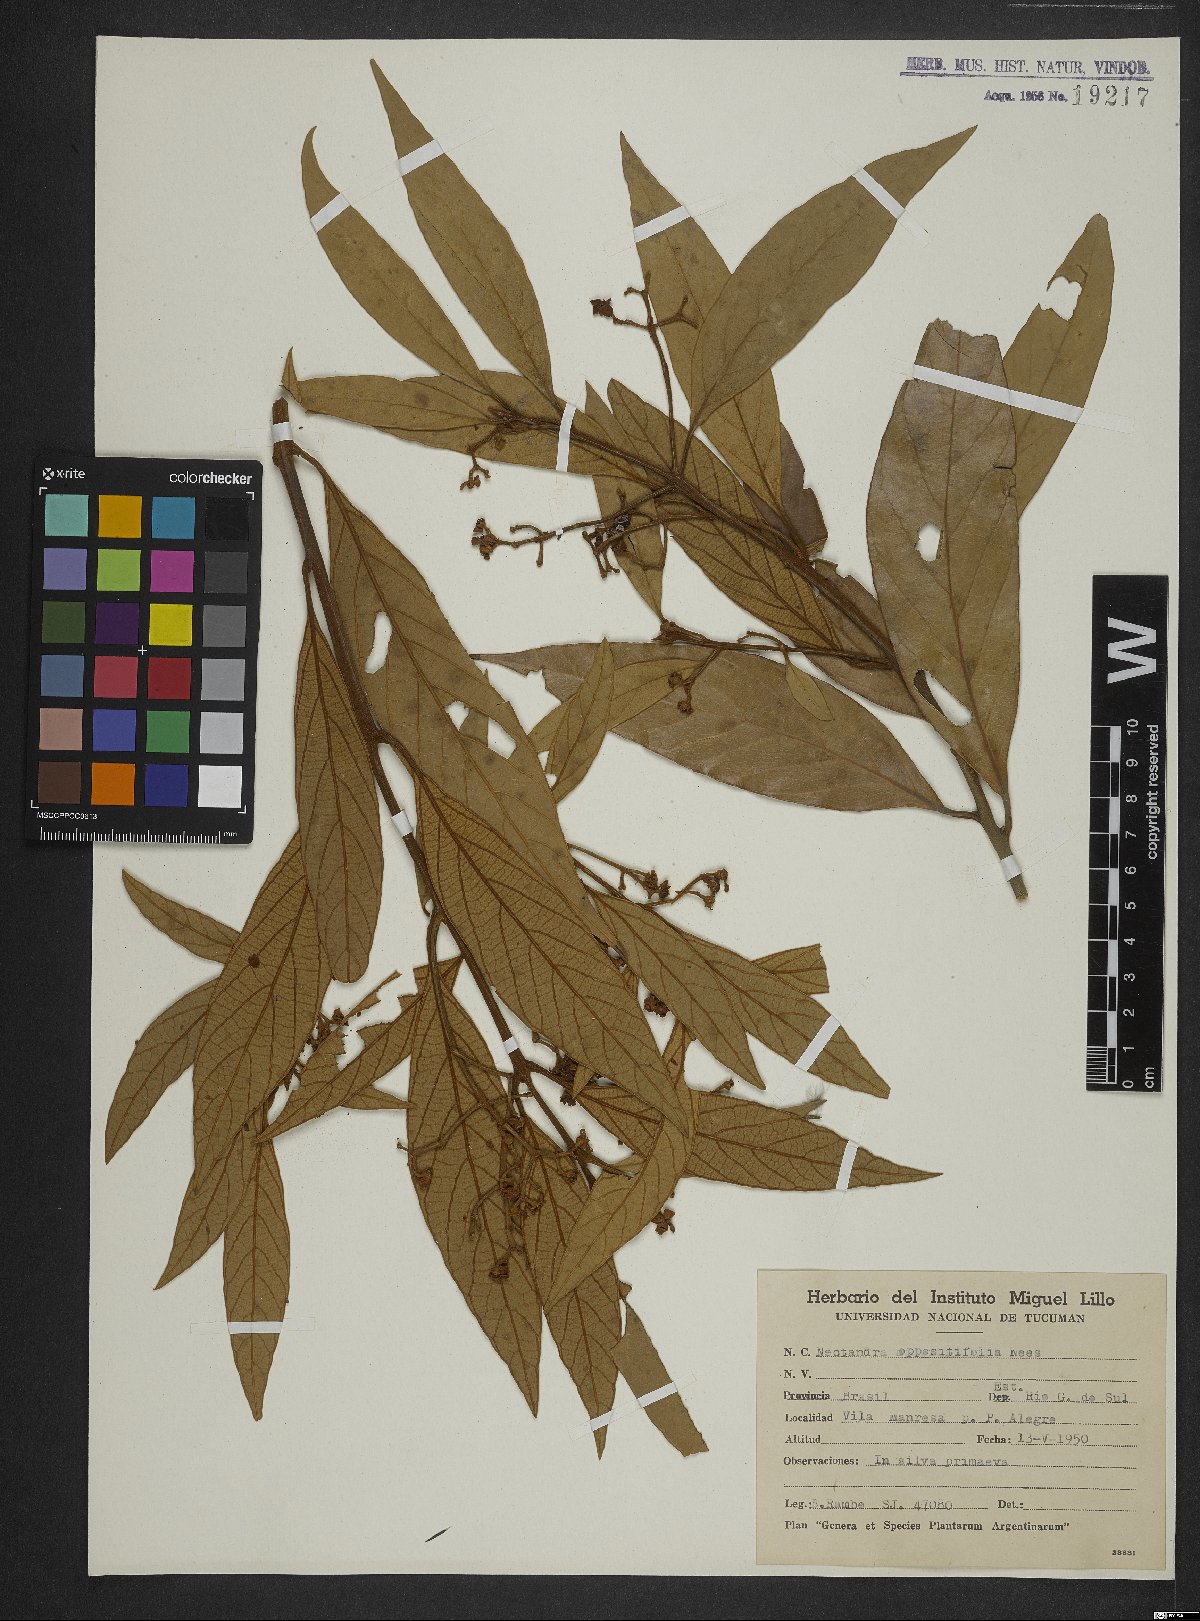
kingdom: Plantae
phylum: Tracheophyta
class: Magnoliopsida
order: Laurales
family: Lauraceae
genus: Nectandra
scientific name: Nectandra oppositifolia
